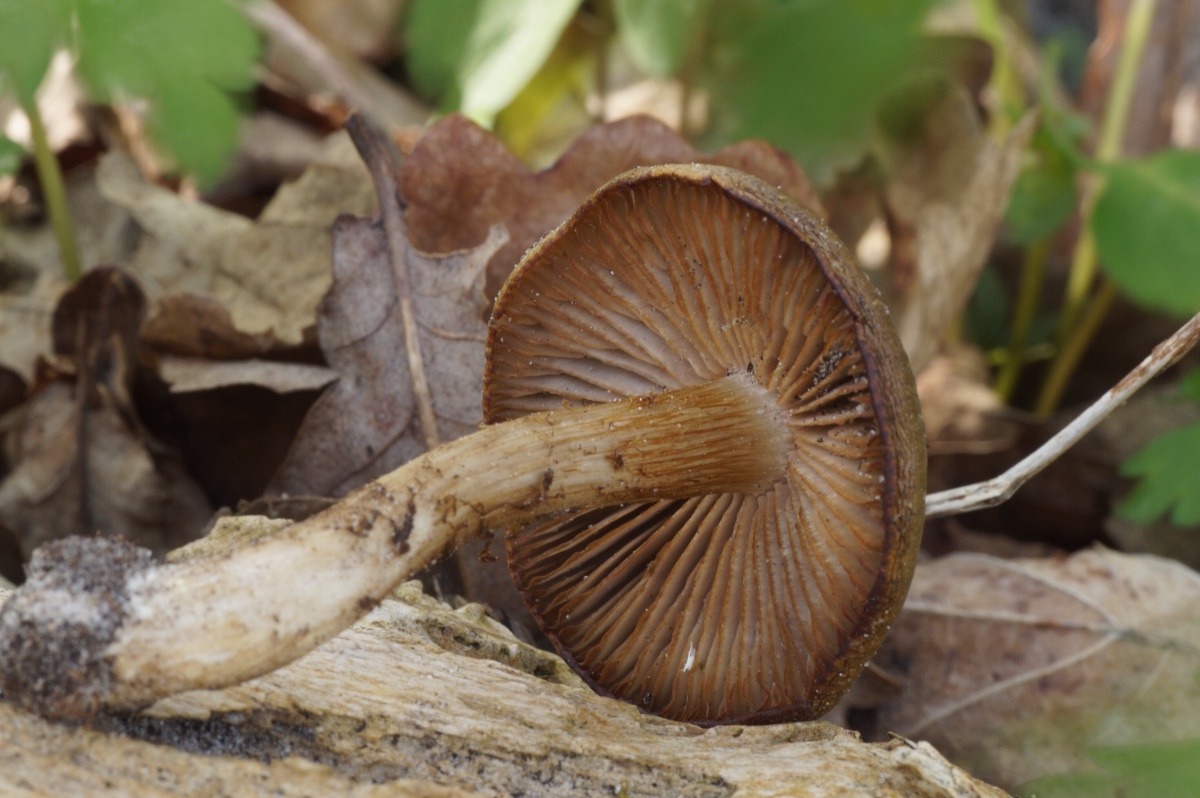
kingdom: Fungi
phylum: Basidiomycota
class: Agaricomycetes
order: Agaricales
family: Entolomataceae
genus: Entoloma
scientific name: Entoloma
